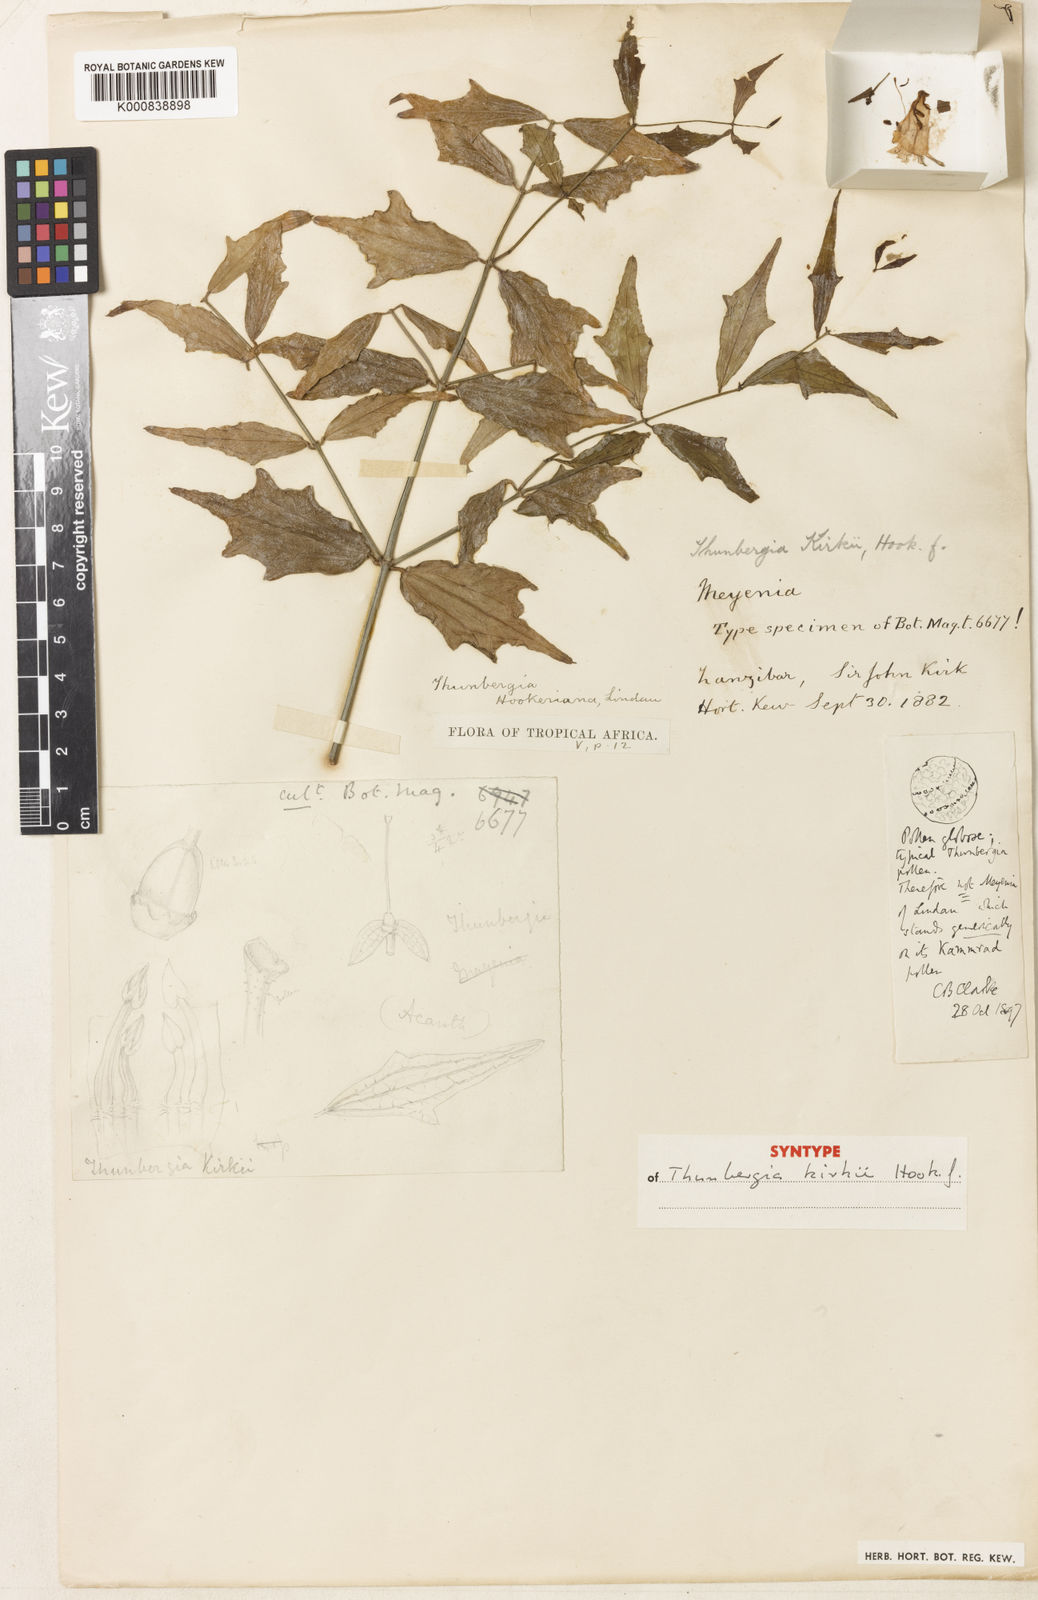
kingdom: Plantae
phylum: Tracheophyta
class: Magnoliopsida
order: Lamiales
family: Acanthaceae
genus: Thunbergia
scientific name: Thunbergia kirkii
